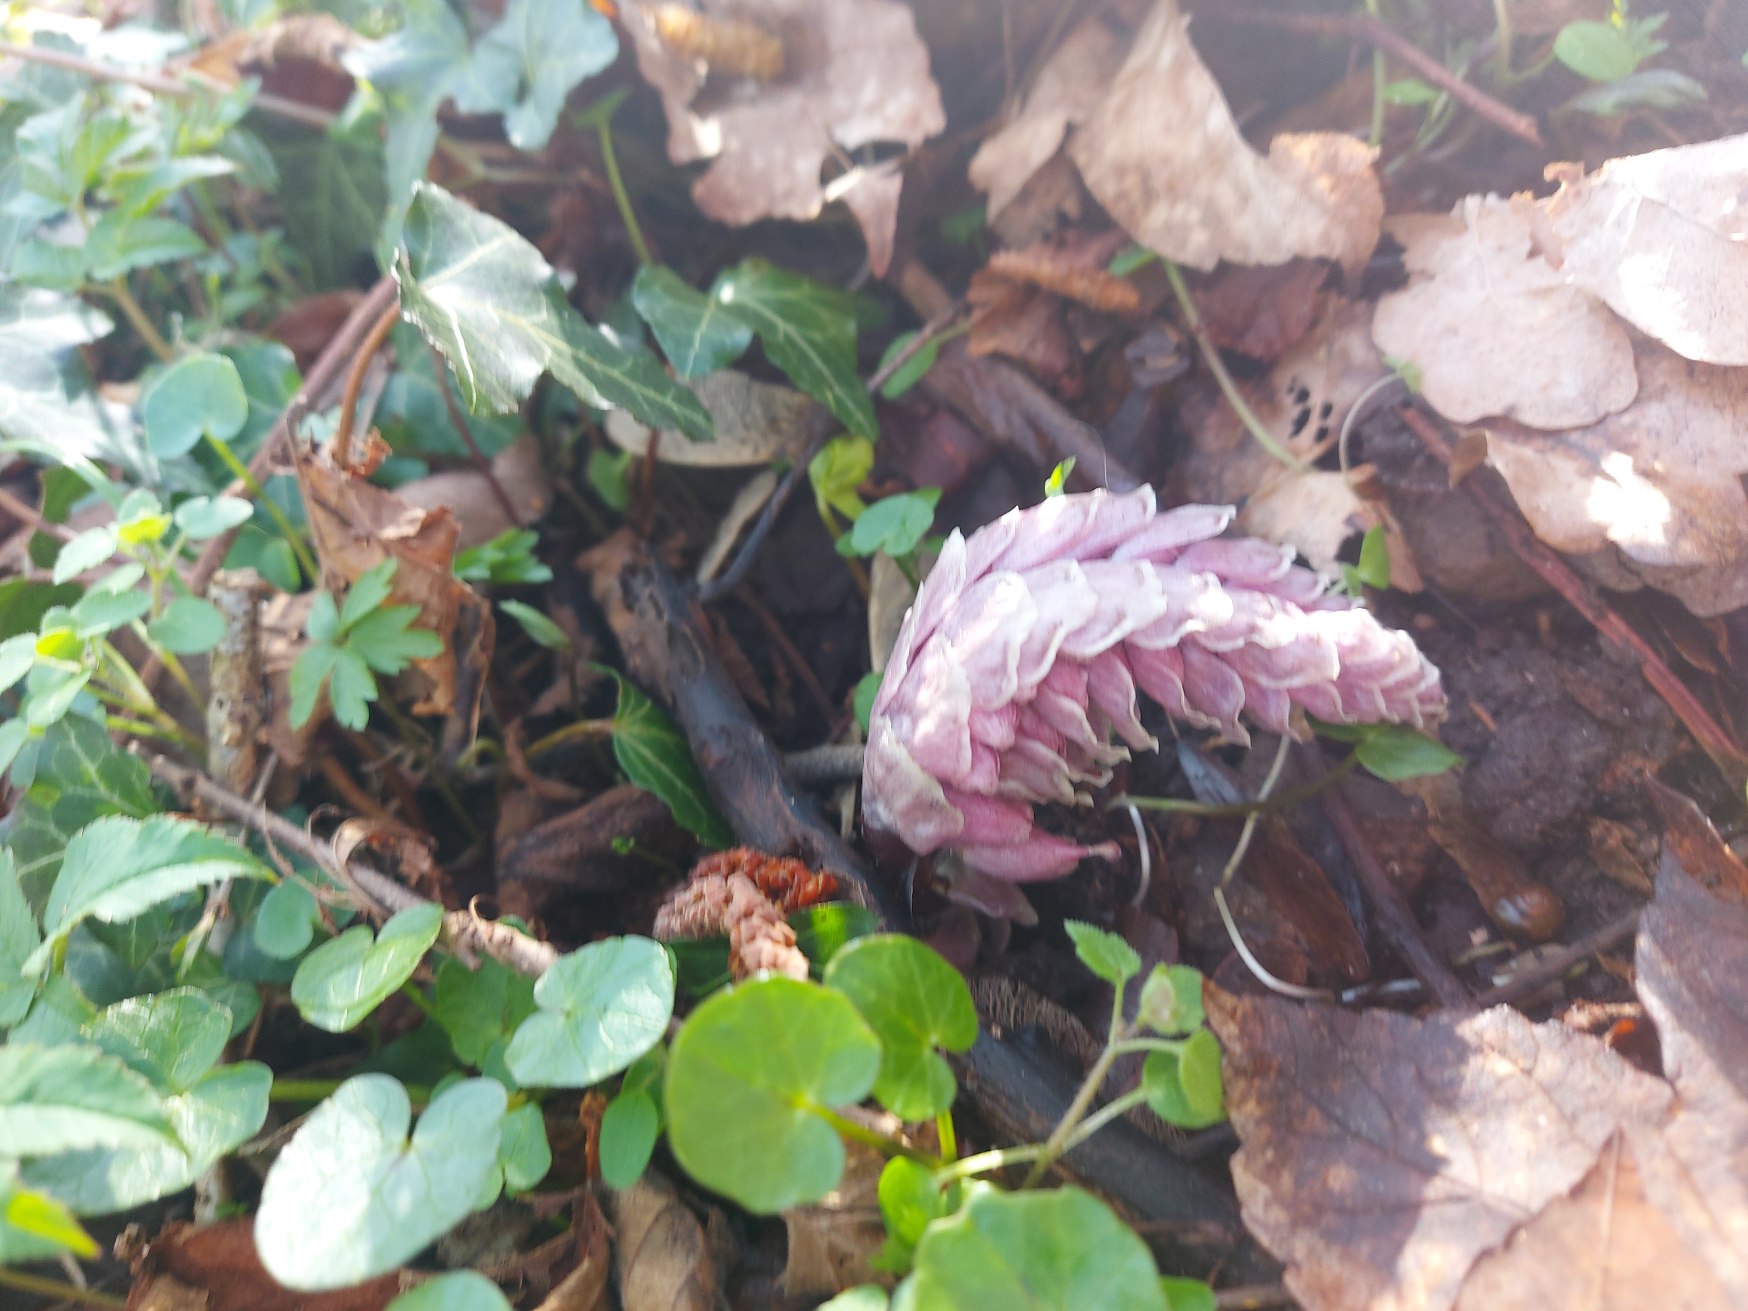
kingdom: Plantae
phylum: Tracheophyta
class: Magnoliopsida
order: Lamiales
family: Orobanchaceae
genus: Lathraea
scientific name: Lathraea squamaria
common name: Skælrod
